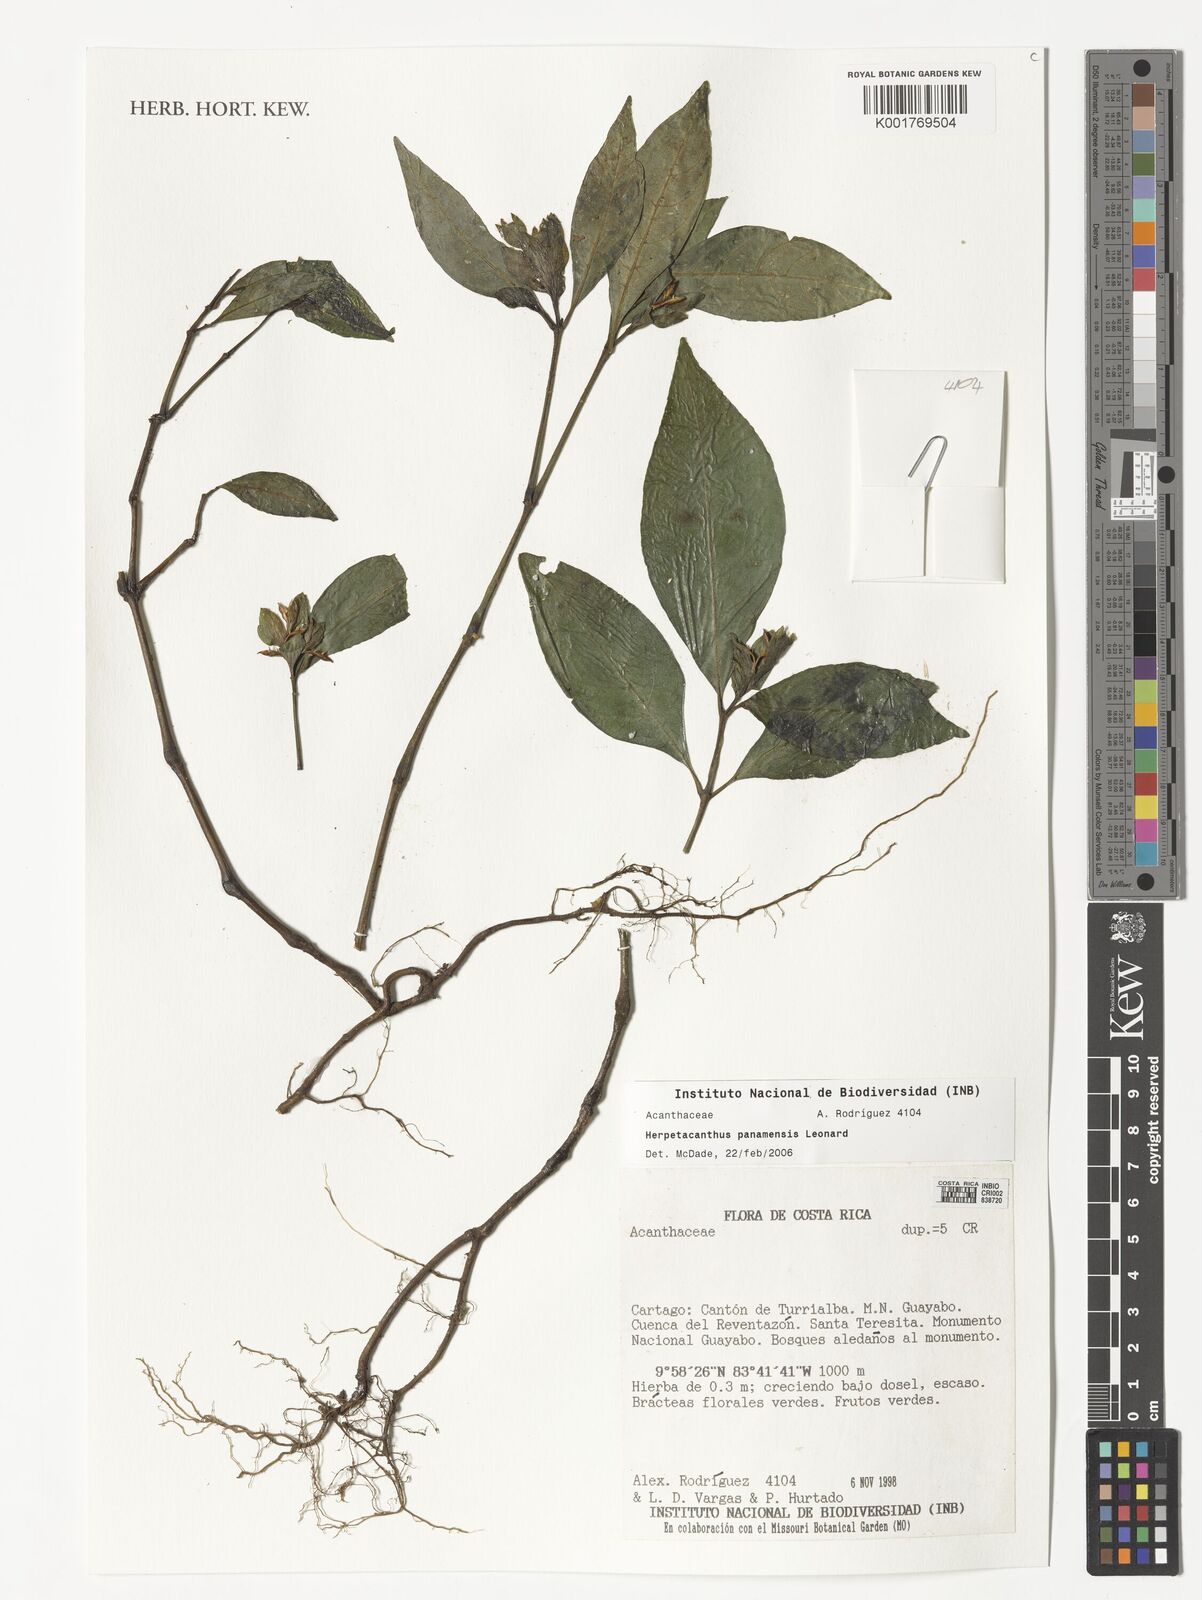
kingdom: Plantae
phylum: Tracheophyta
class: Magnoliopsida
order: Lamiales
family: Acanthaceae
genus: Herpetacanthus
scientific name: Herpetacanthus panamensis
